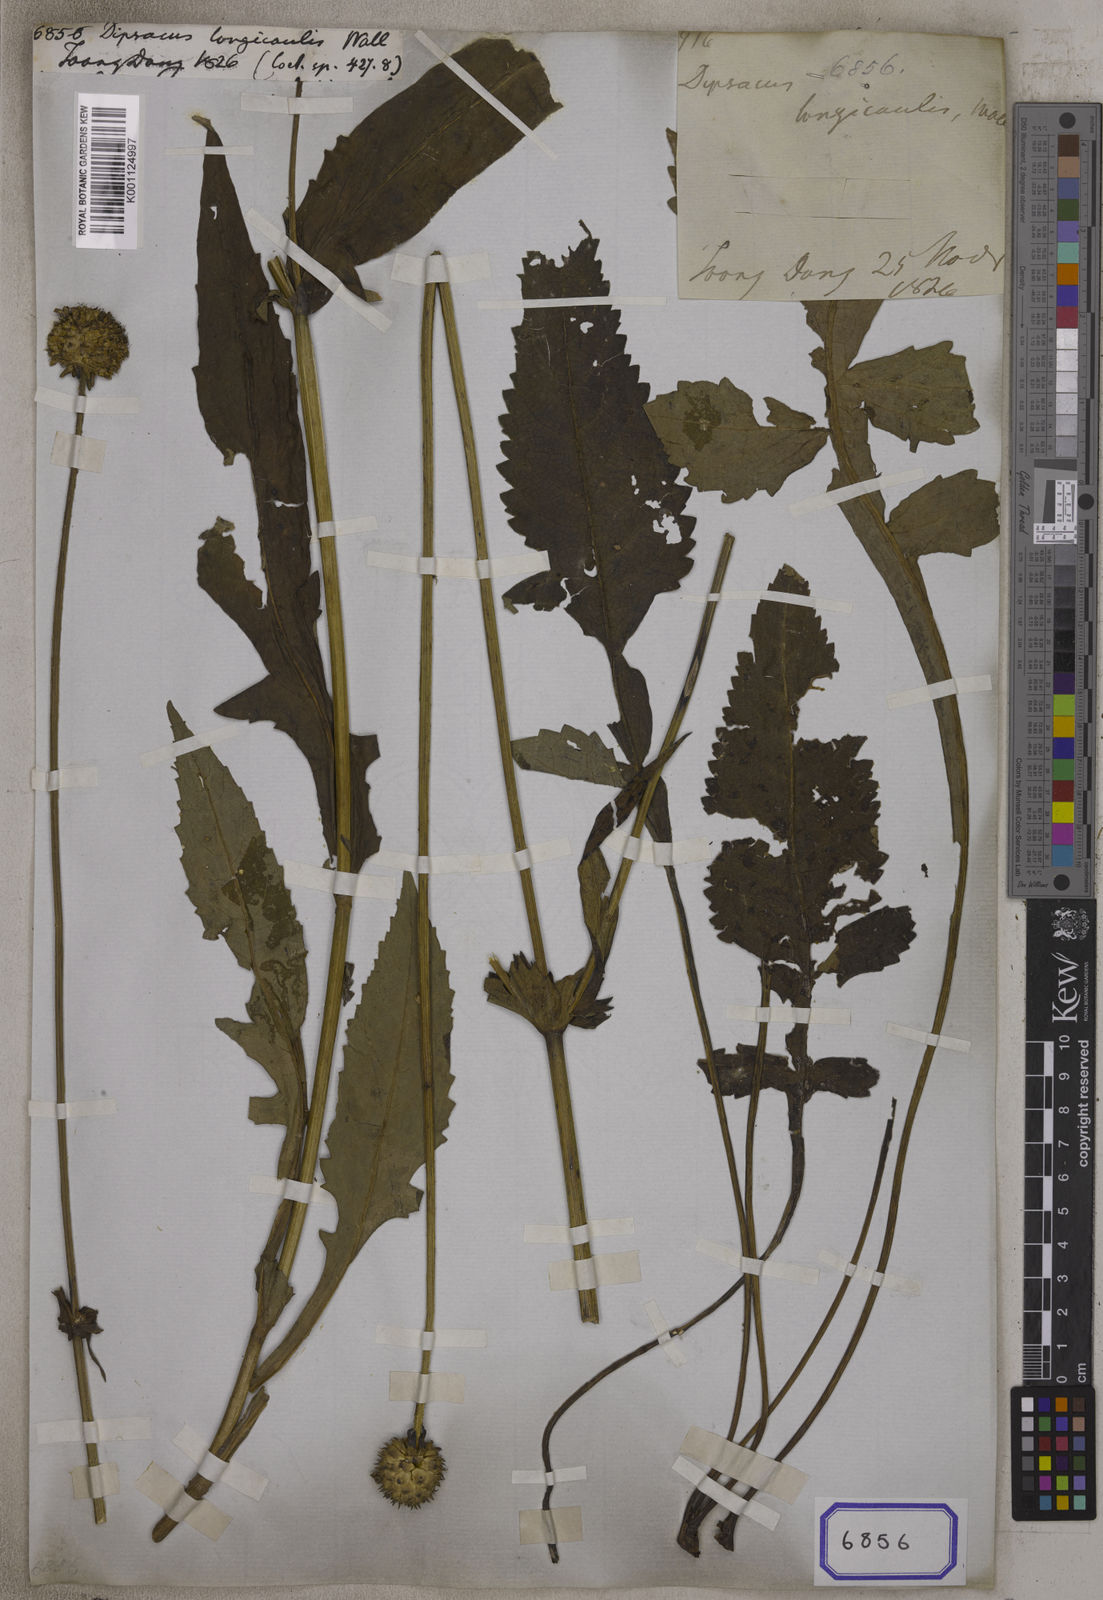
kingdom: Plantae
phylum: Tracheophyta
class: Magnoliopsida
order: Dipsacales
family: Caprifoliaceae
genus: Dipsacus
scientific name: Dipsacus
